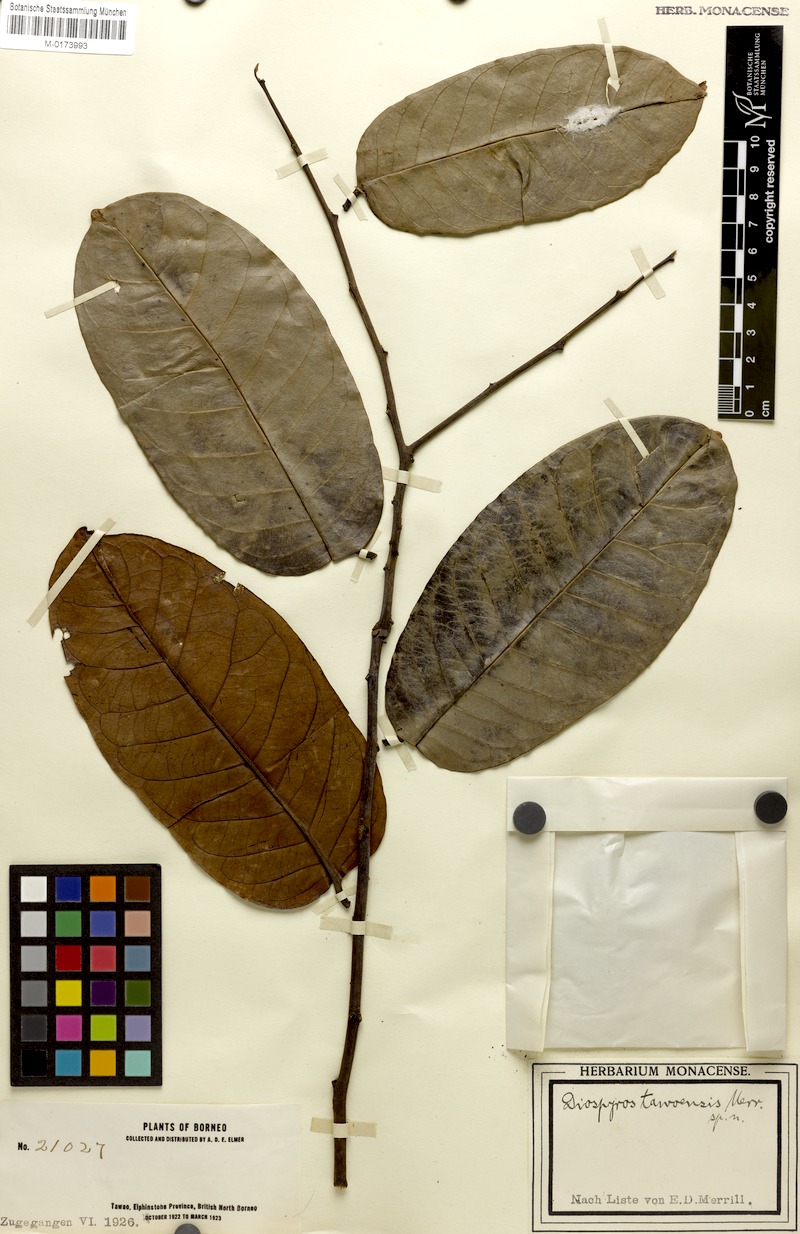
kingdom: Plantae
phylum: Tracheophyta
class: Magnoliopsida
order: Ericales
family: Ebenaceae
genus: Diospyros
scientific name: Diospyros borneensis
